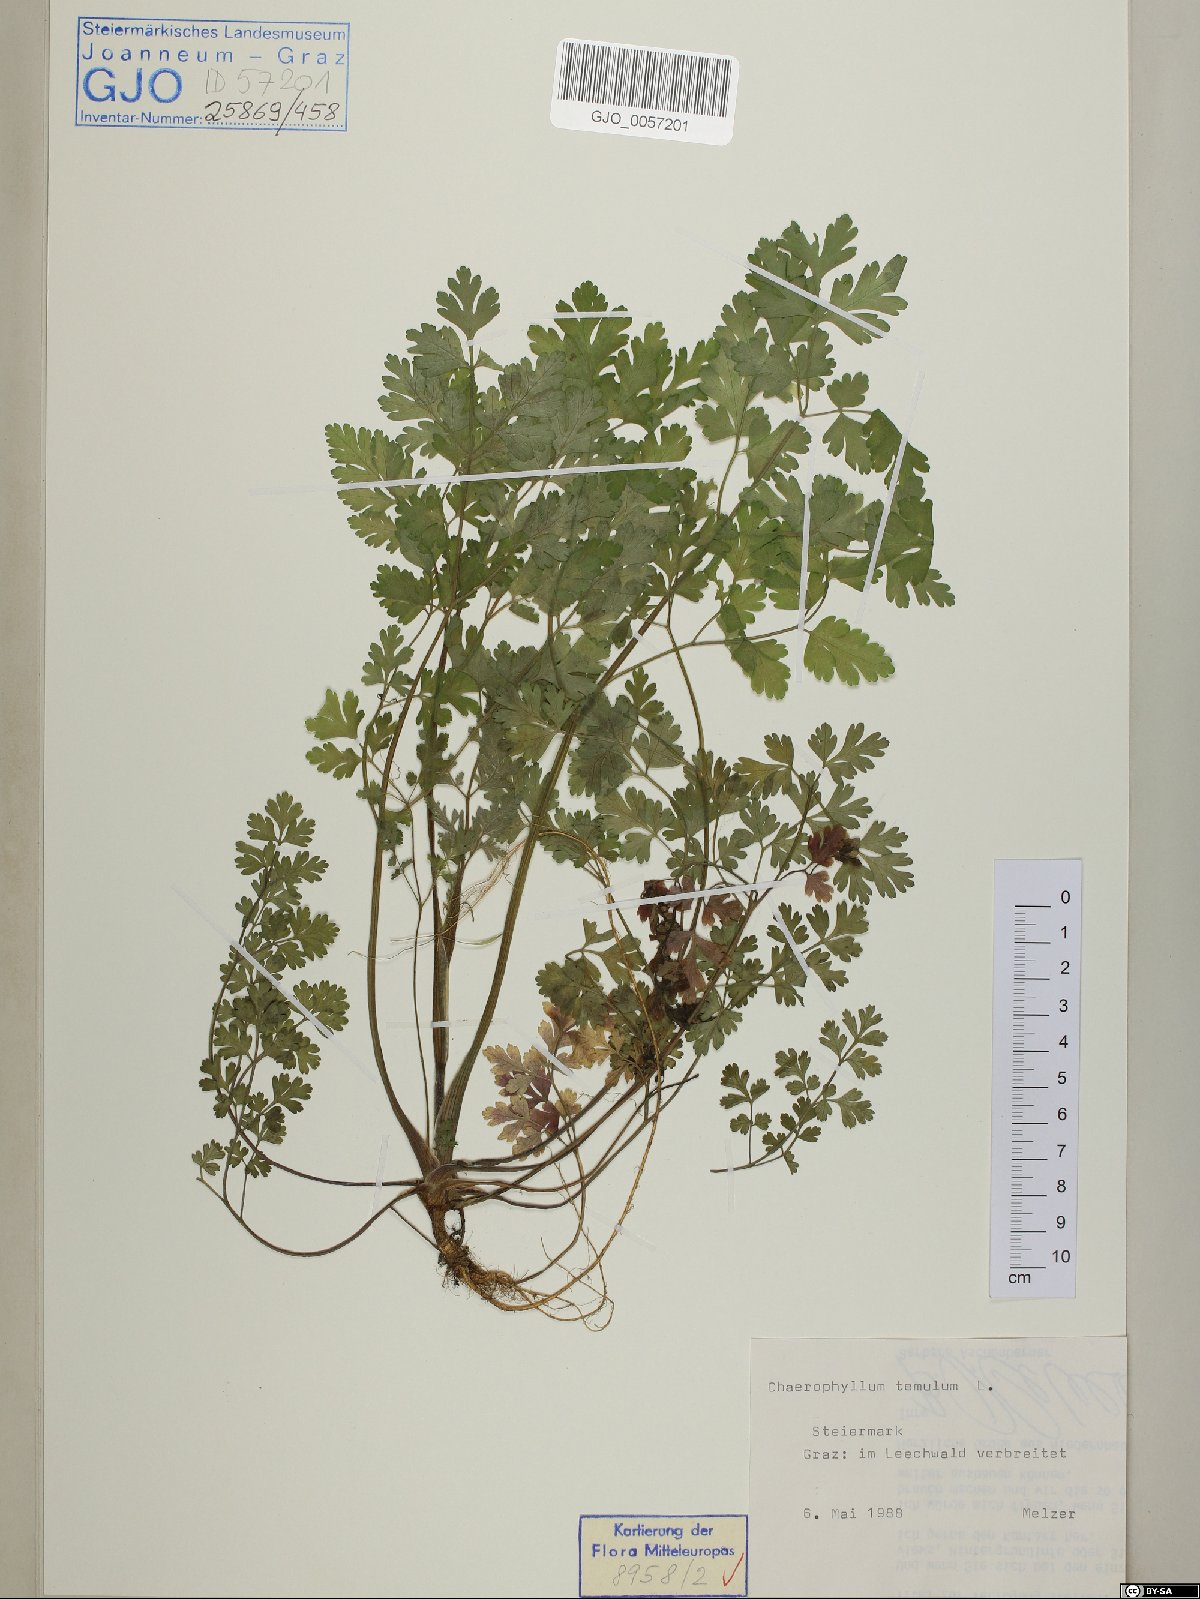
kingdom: Plantae
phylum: Tracheophyta
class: Magnoliopsida
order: Apiales
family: Apiaceae
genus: Chaerophyllum
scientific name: Chaerophyllum temulum
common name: Rough chervil
